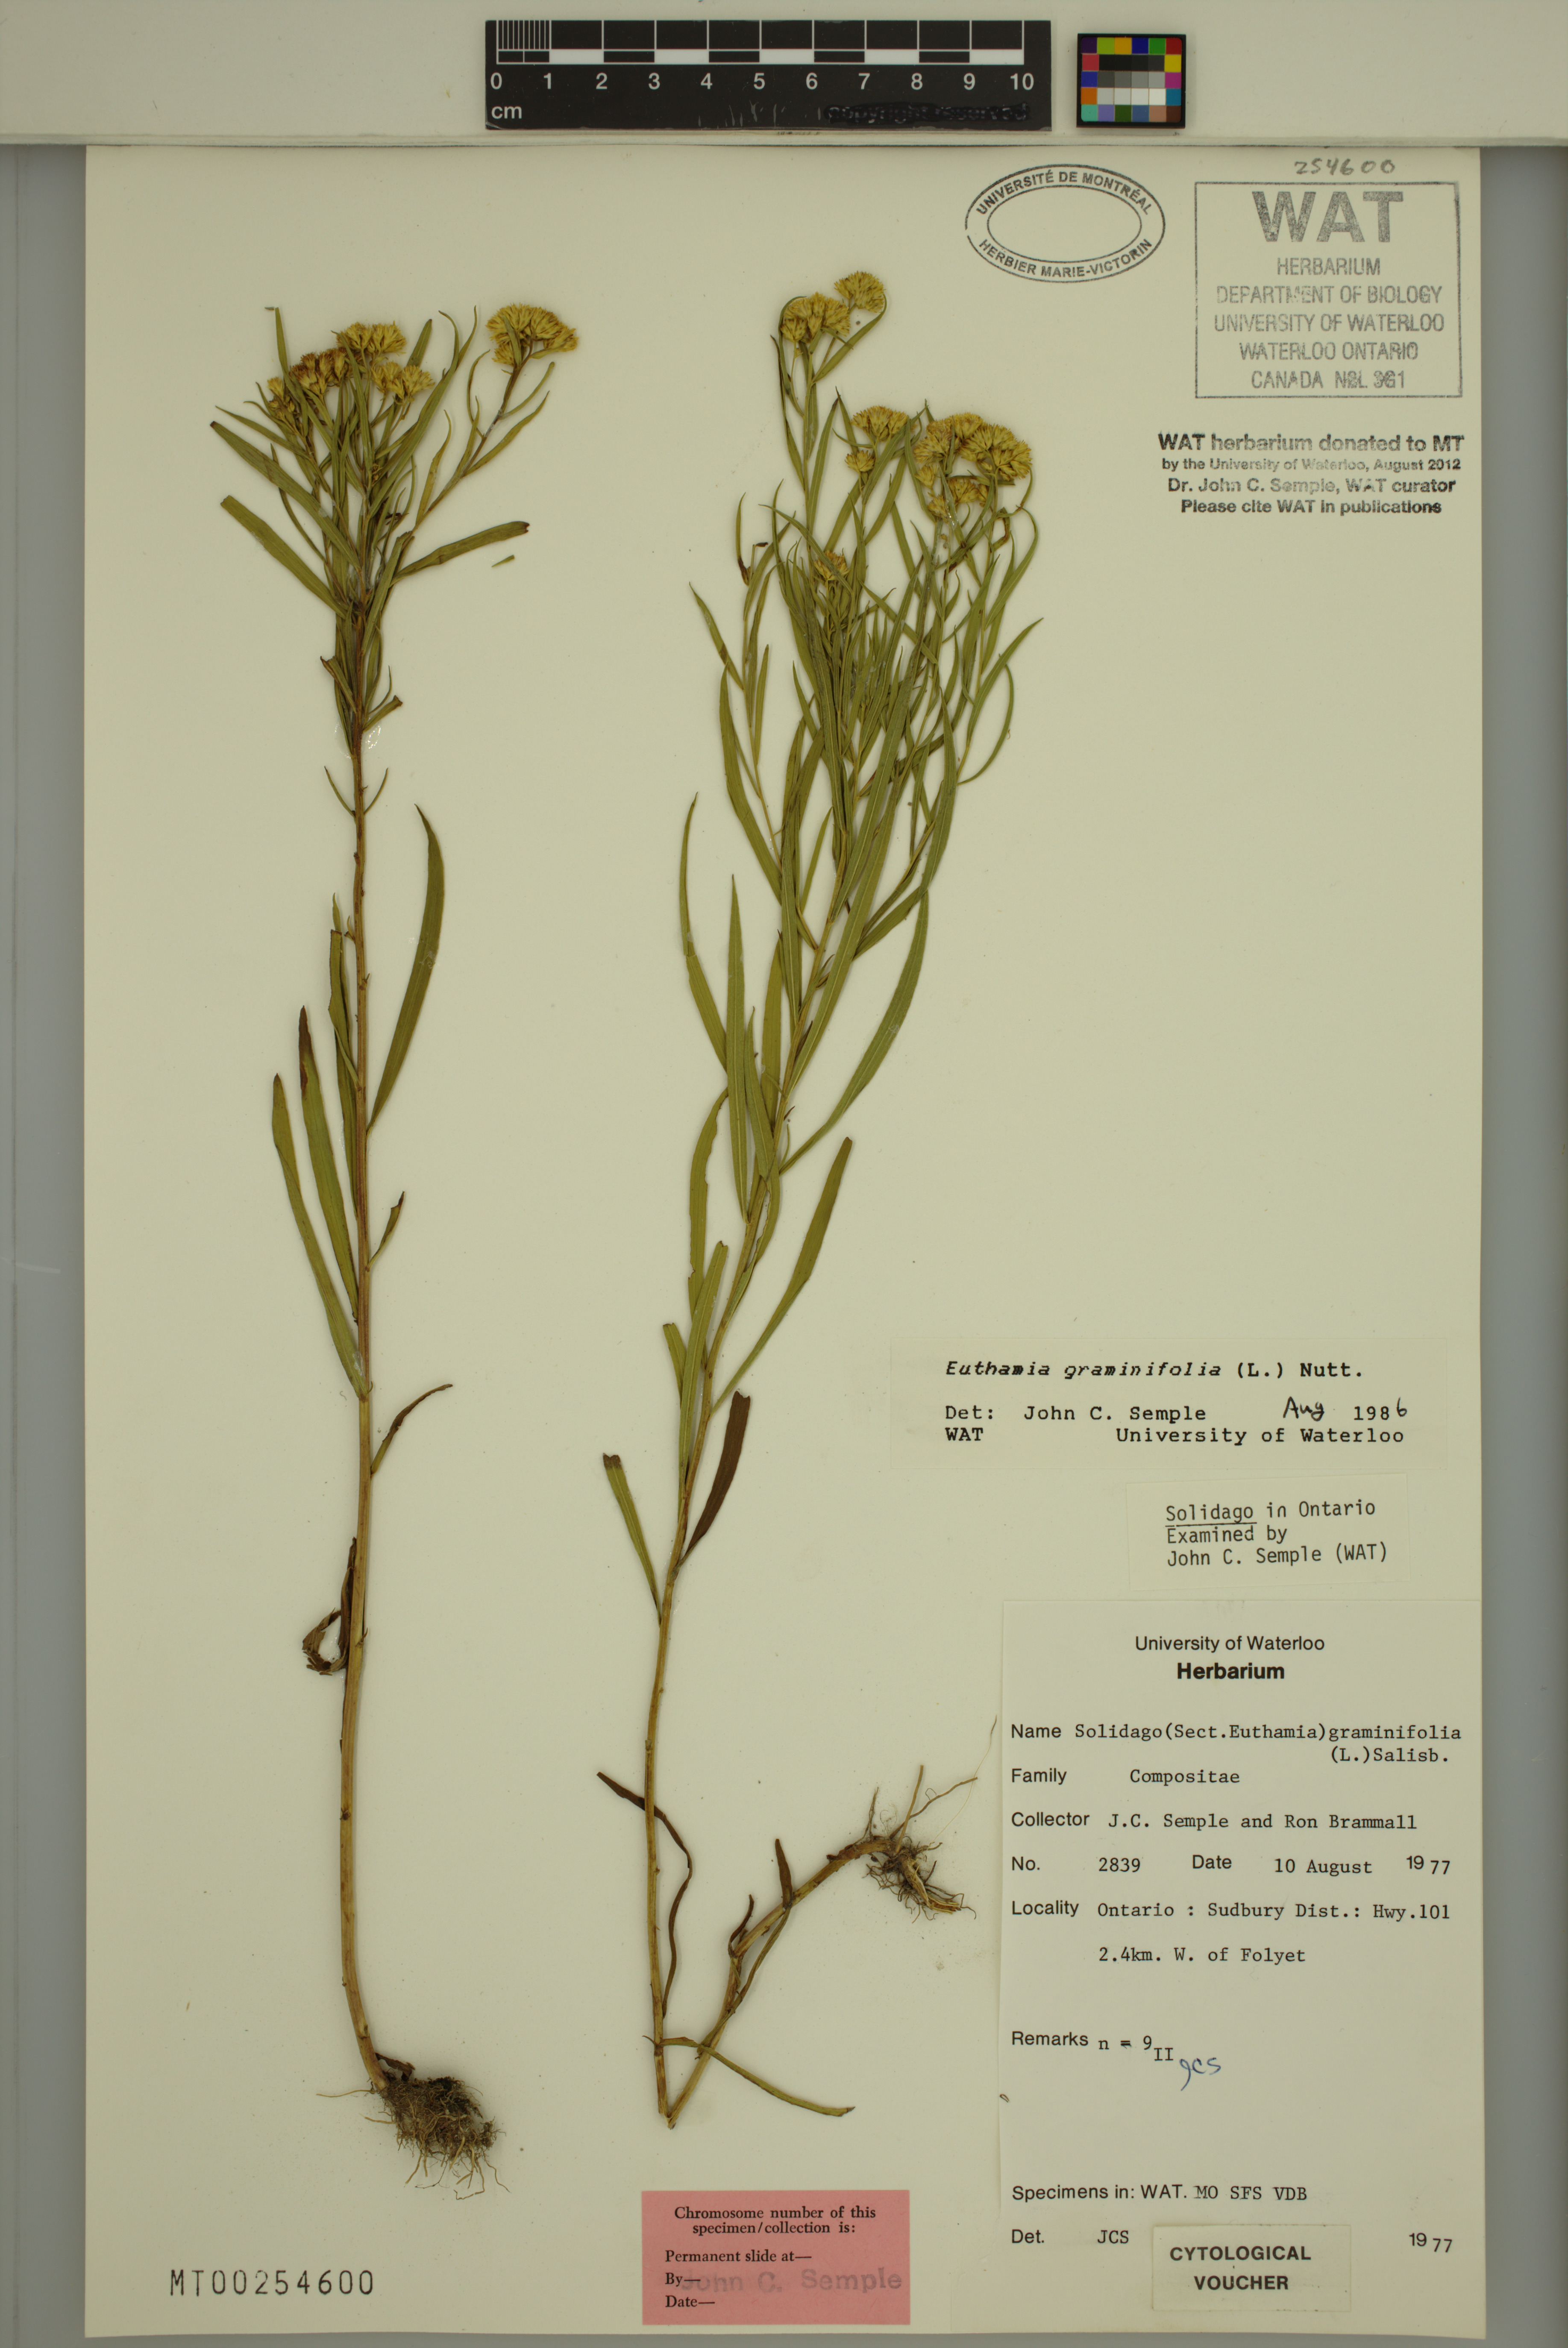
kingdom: Plantae
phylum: Tracheophyta
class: Magnoliopsida
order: Asterales
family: Asteraceae
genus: Euthamia
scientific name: Euthamia graminifolia
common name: Common goldentop
